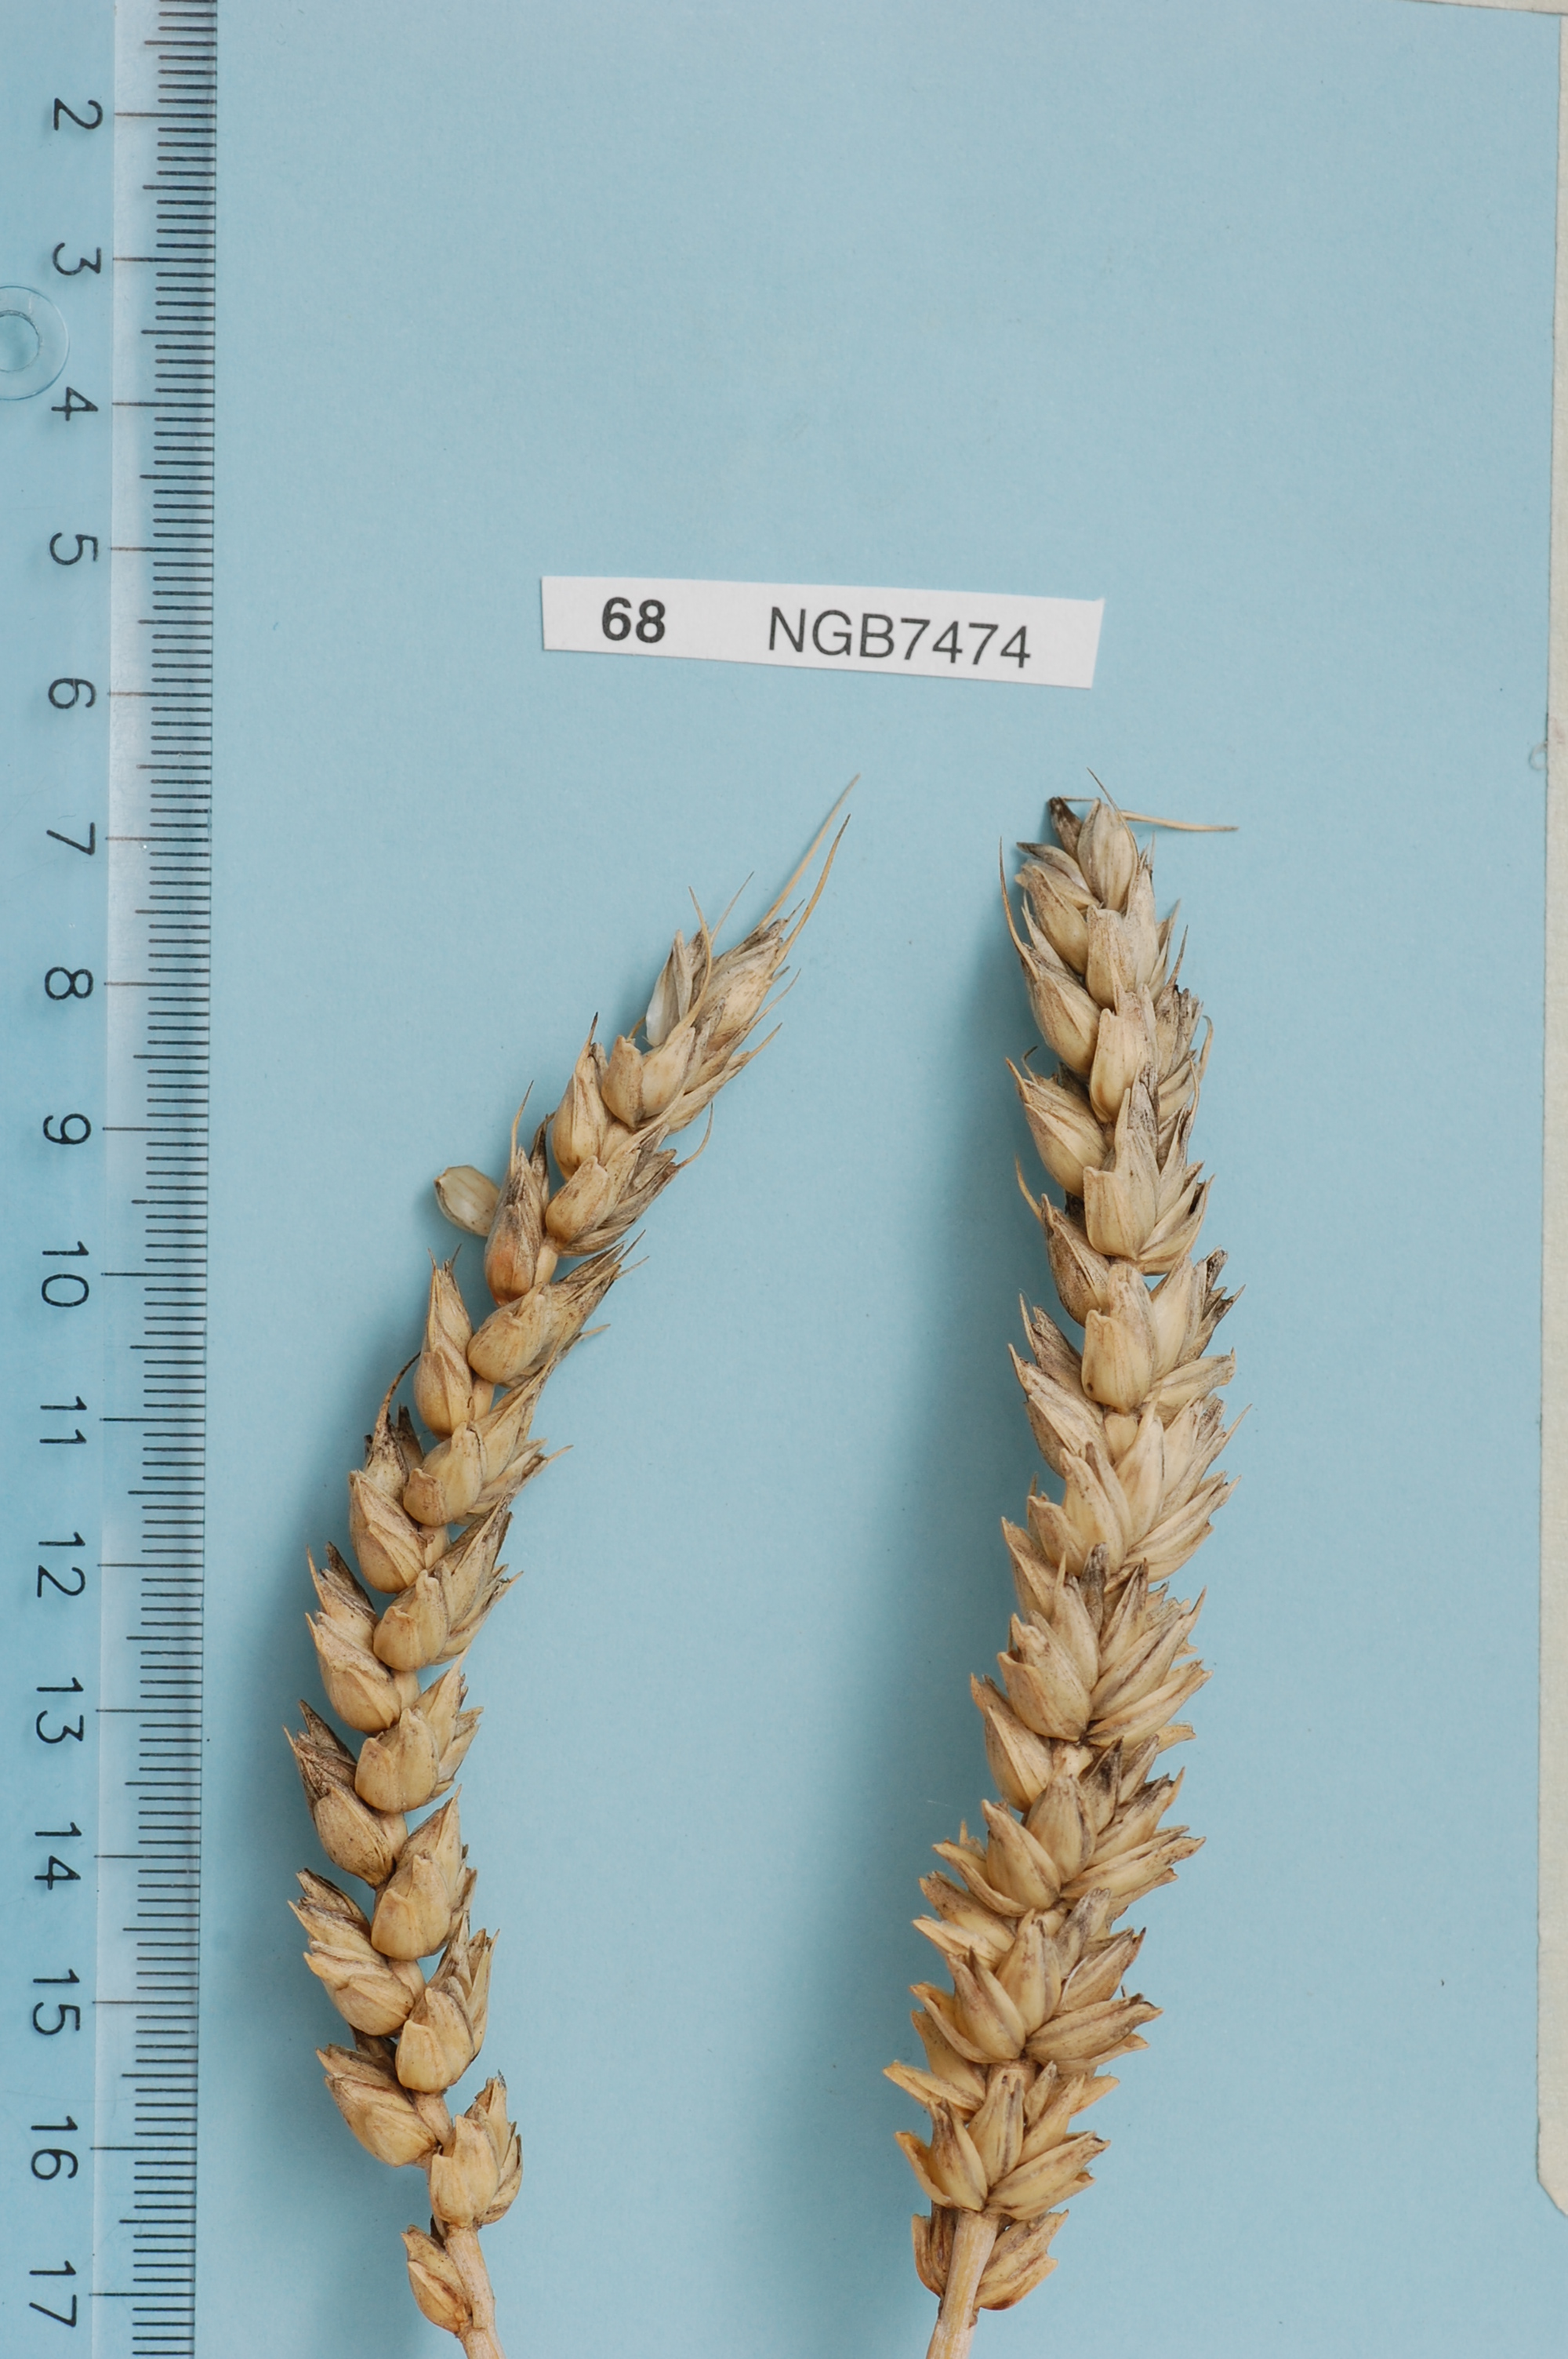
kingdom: Plantae
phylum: Tracheophyta
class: Liliopsida
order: Poales
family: Poaceae
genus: Triticum
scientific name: Triticum aestivum
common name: Common wheat
